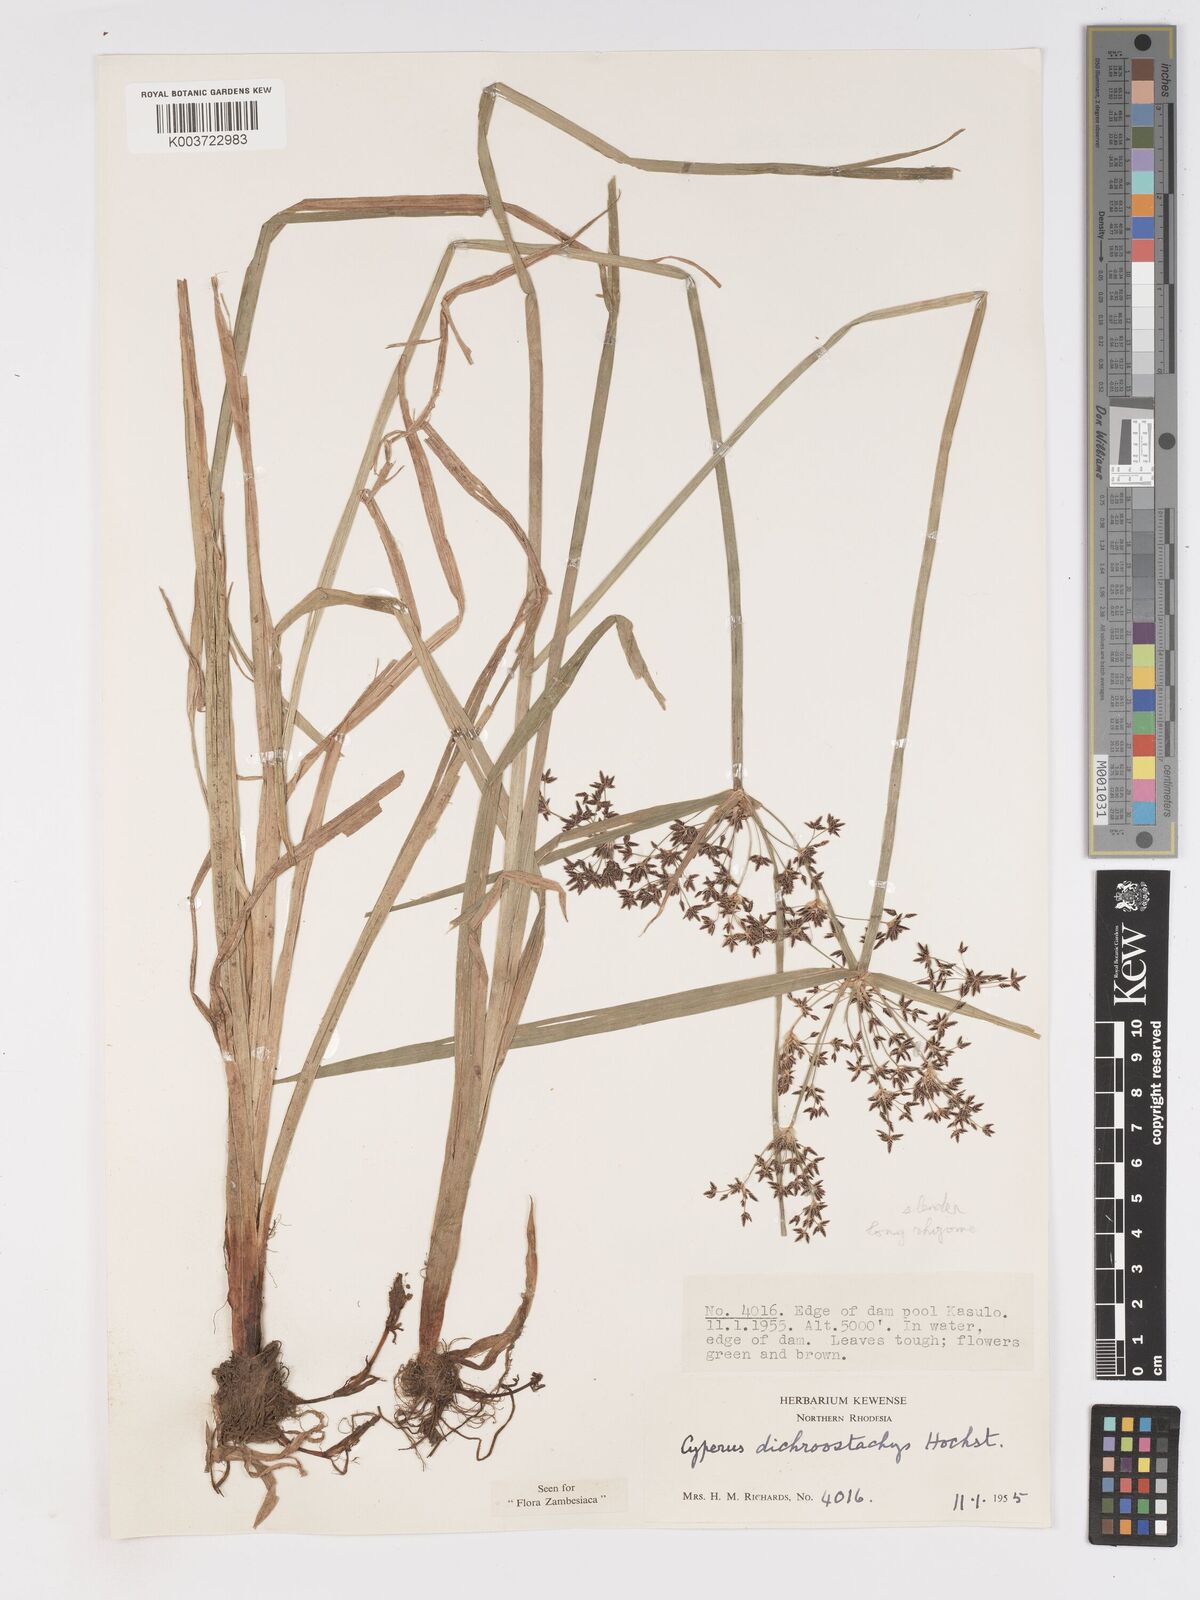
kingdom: Plantae
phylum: Tracheophyta
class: Liliopsida
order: Poales
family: Cyperaceae
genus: Cyperus
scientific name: Cyperus dichrostachyus
